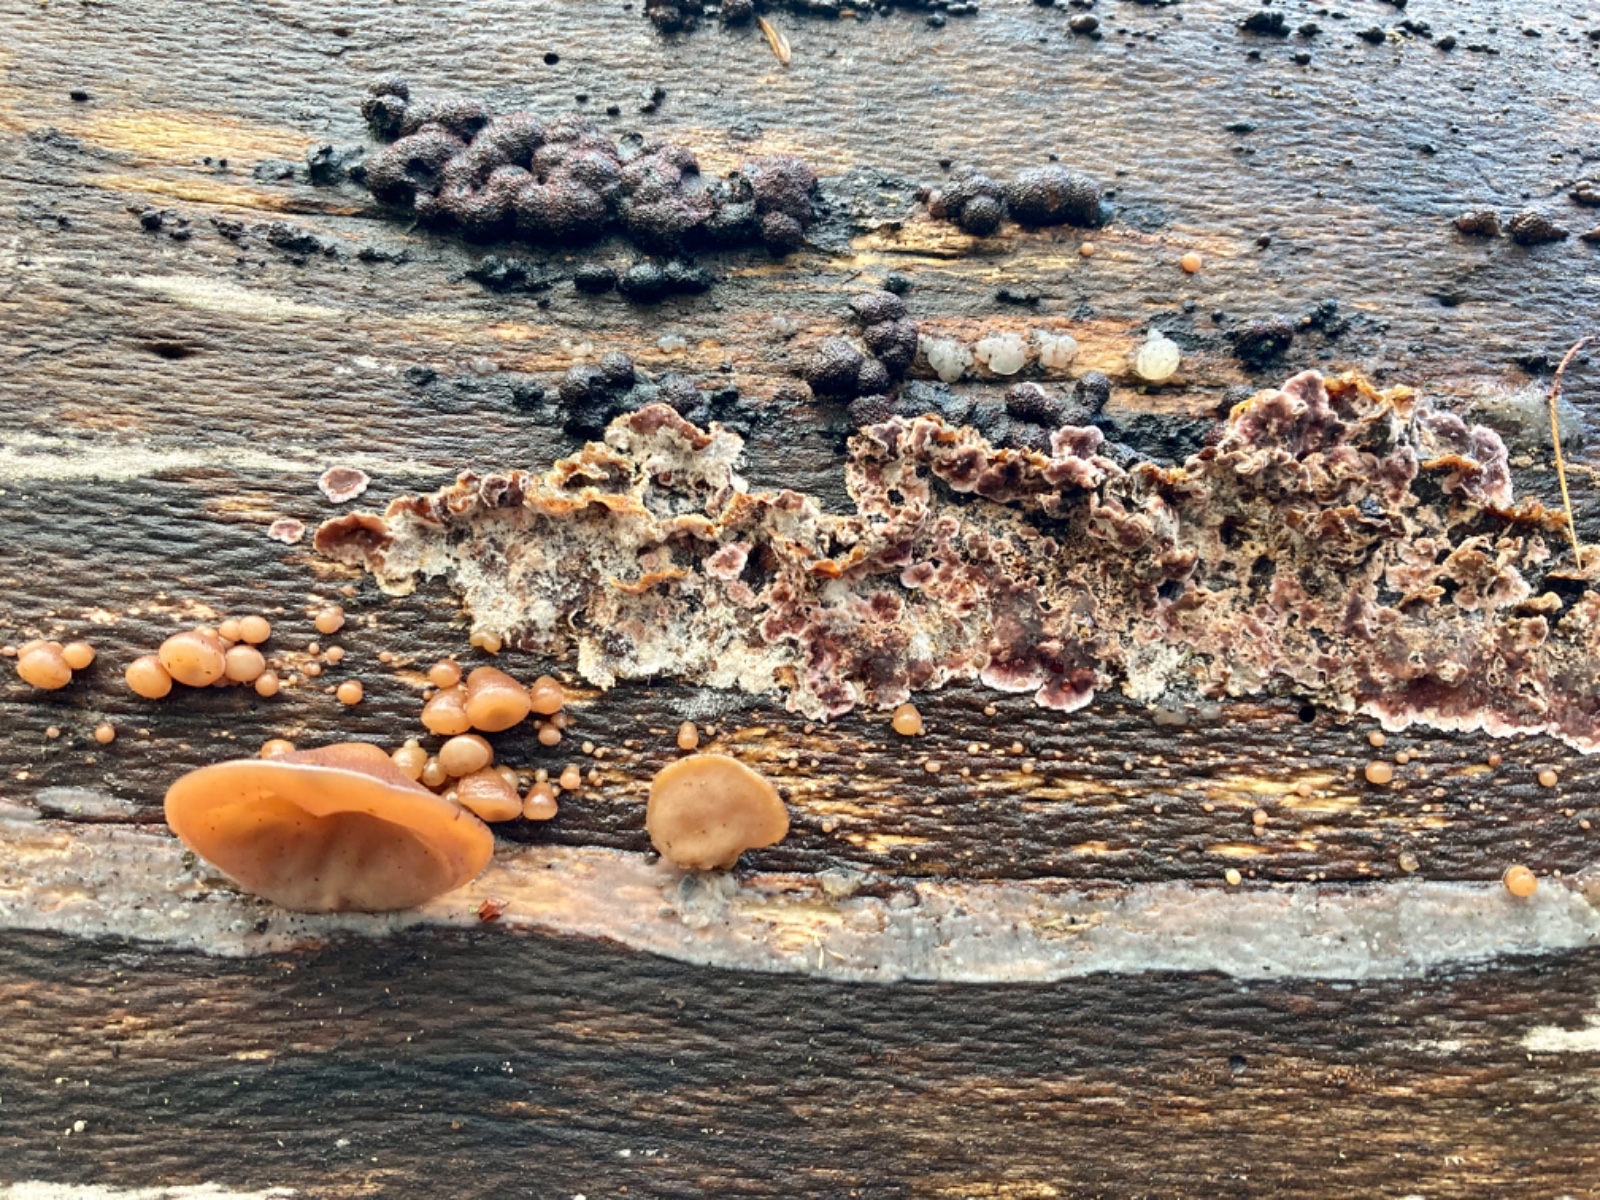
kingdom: Fungi
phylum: Basidiomycota
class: Agaricomycetes
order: Agaricales
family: Cyphellaceae
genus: Chondrostereum
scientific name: Chondrostereum purpureum
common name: purpurlædersvamp
